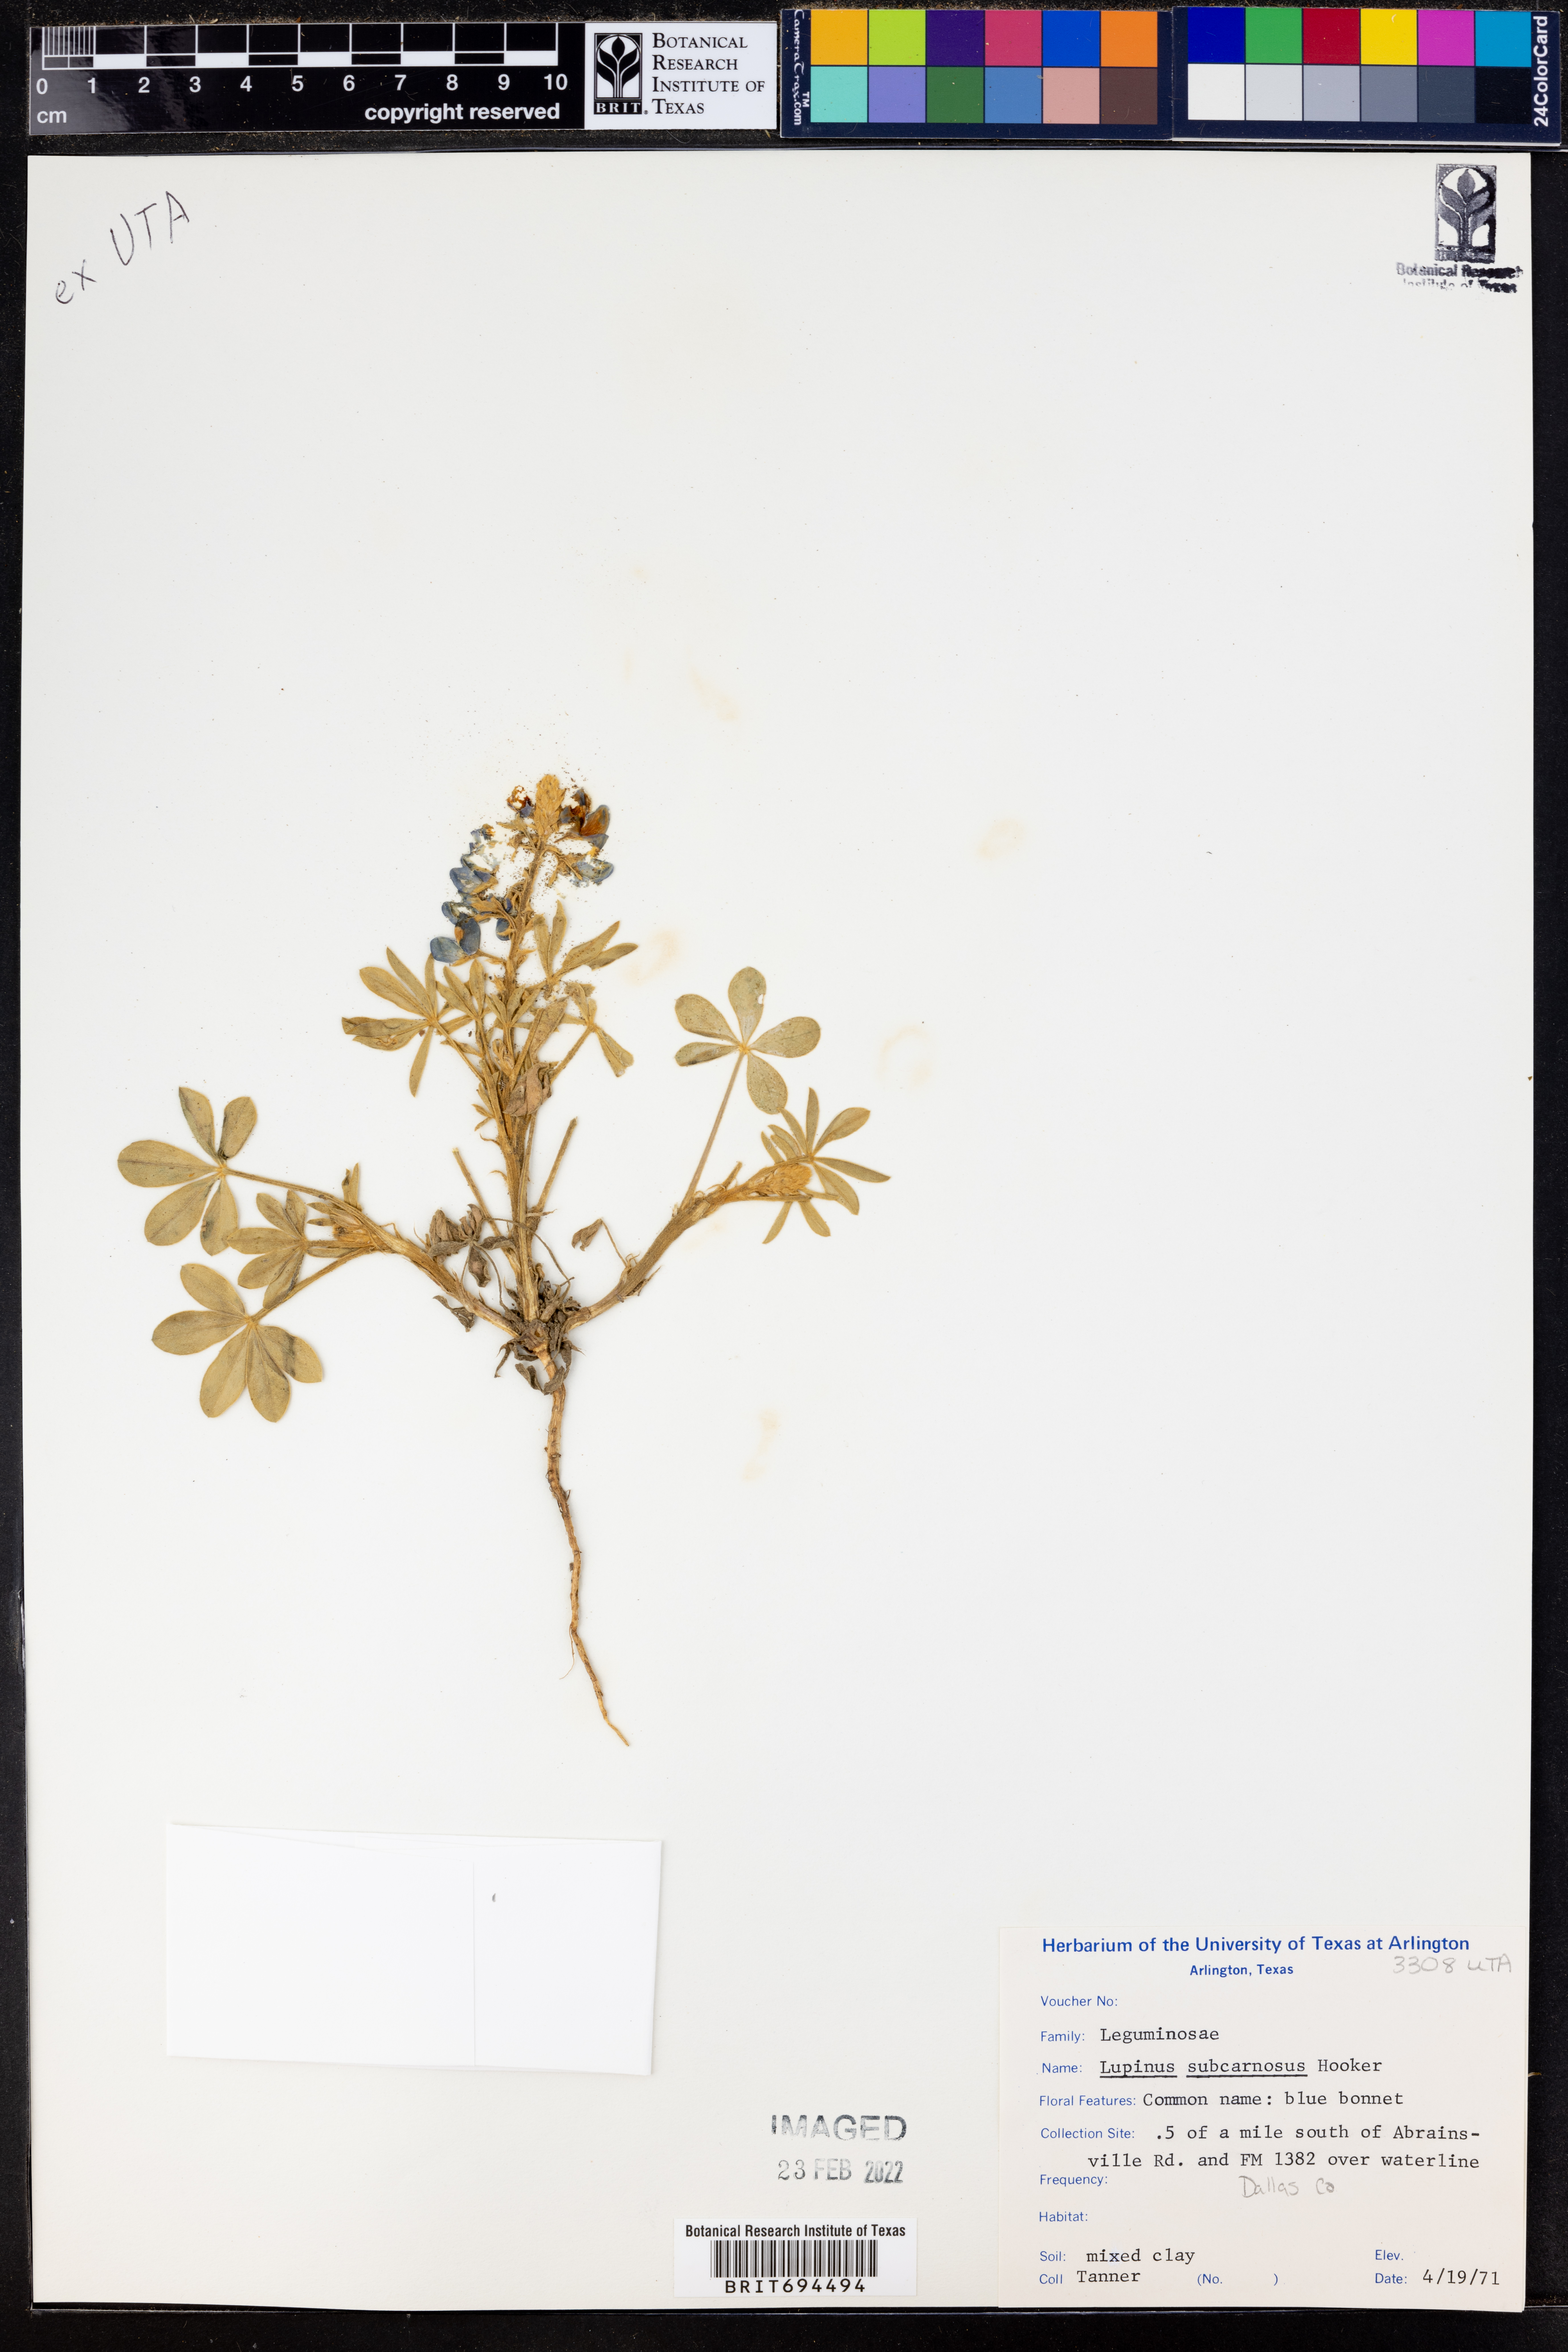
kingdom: Plantae
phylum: Tracheophyta
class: Magnoliopsida
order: Fabales
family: Fabaceae
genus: Lupinus
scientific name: Lupinus subcarnosus
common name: Texas bluebonnet
